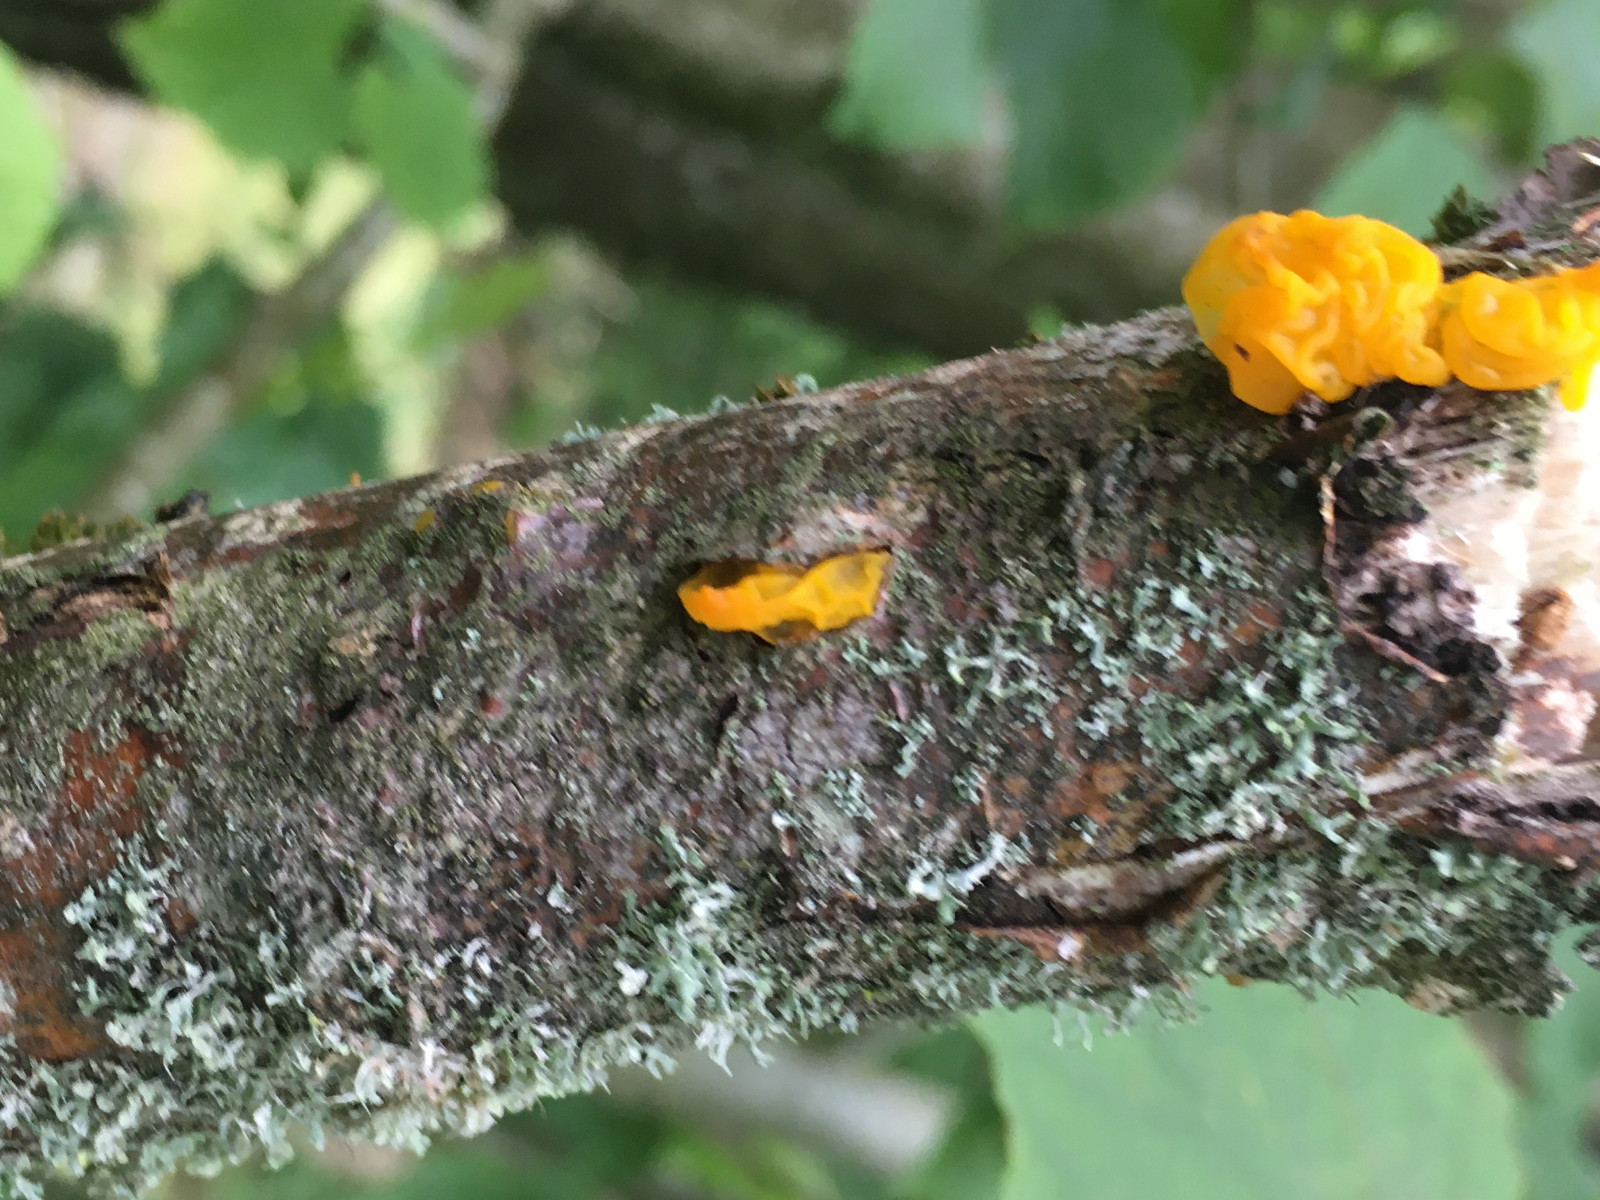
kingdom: Fungi
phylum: Basidiomycota
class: Tremellomycetes
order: Tremellales
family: Tremellaceae
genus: Tremella
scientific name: Tremella mesenterica
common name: gul bævresvamp
